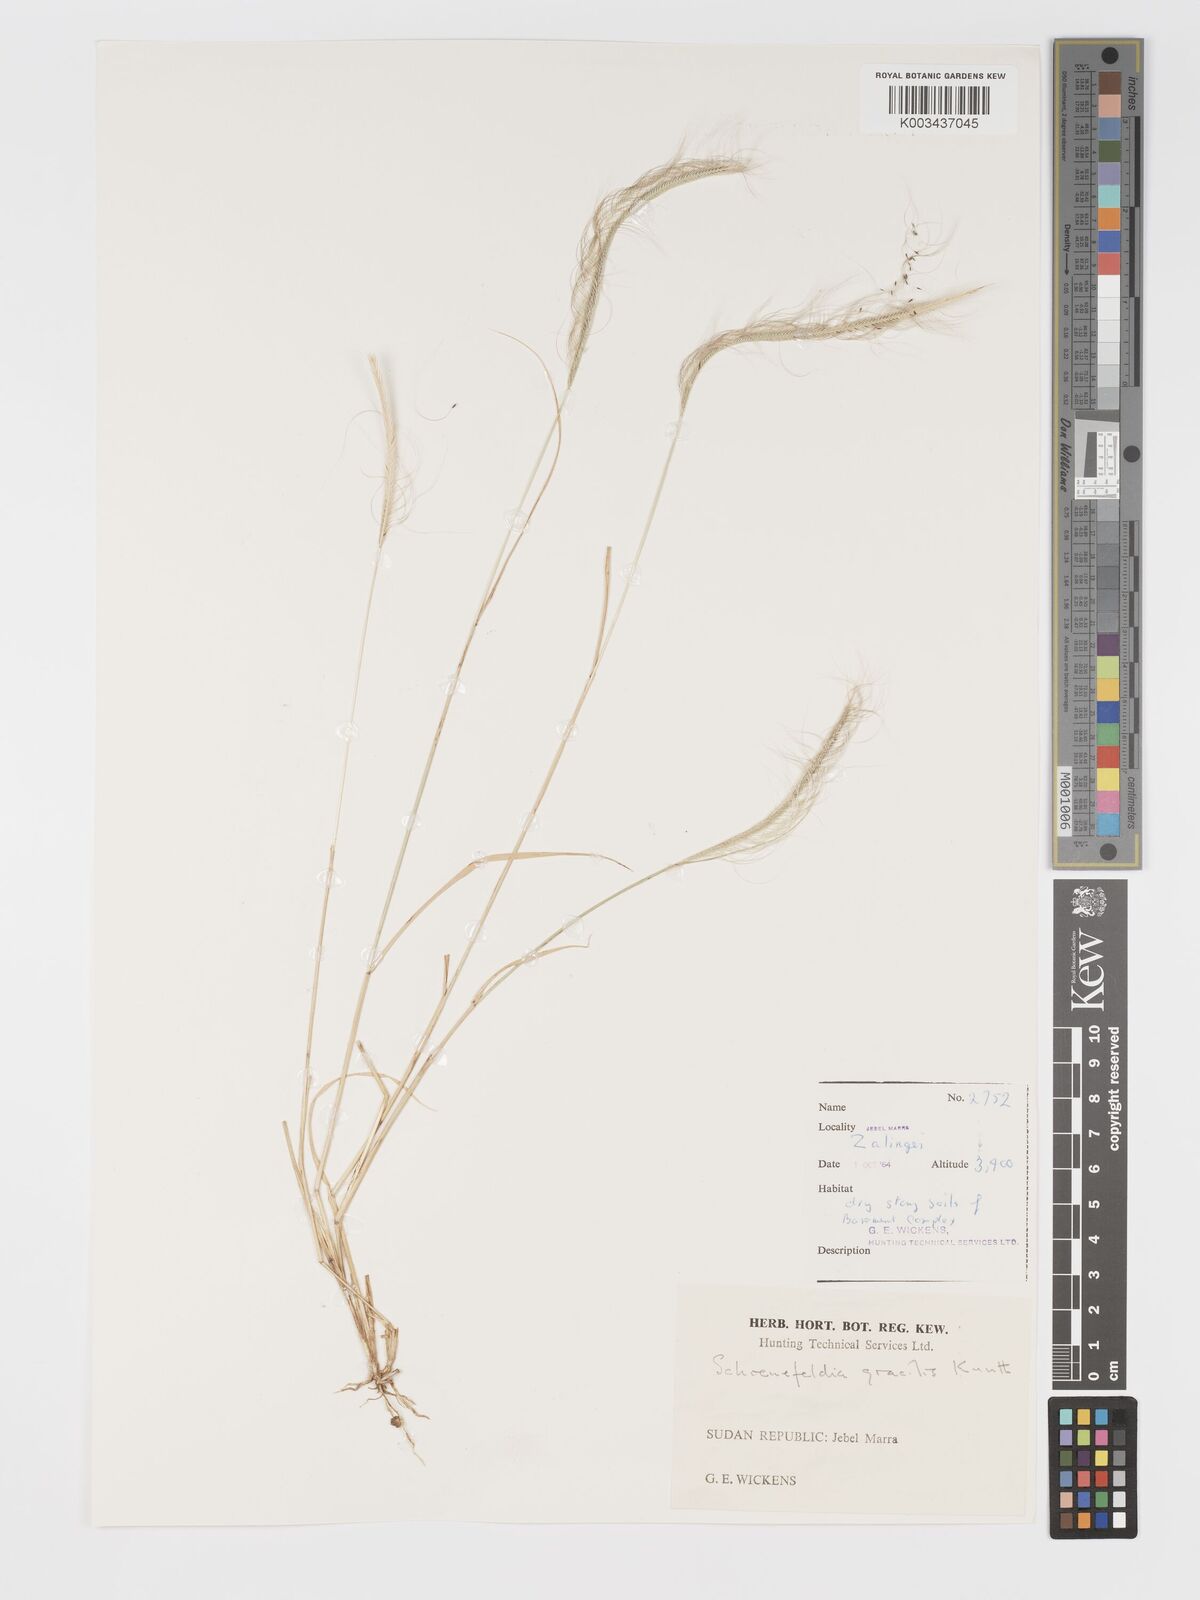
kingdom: Plantae
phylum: Tracheophyta
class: Liliopsida
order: Poales
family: Poaceae
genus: Schoenefeldia
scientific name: Schoenefeldia gracilis
